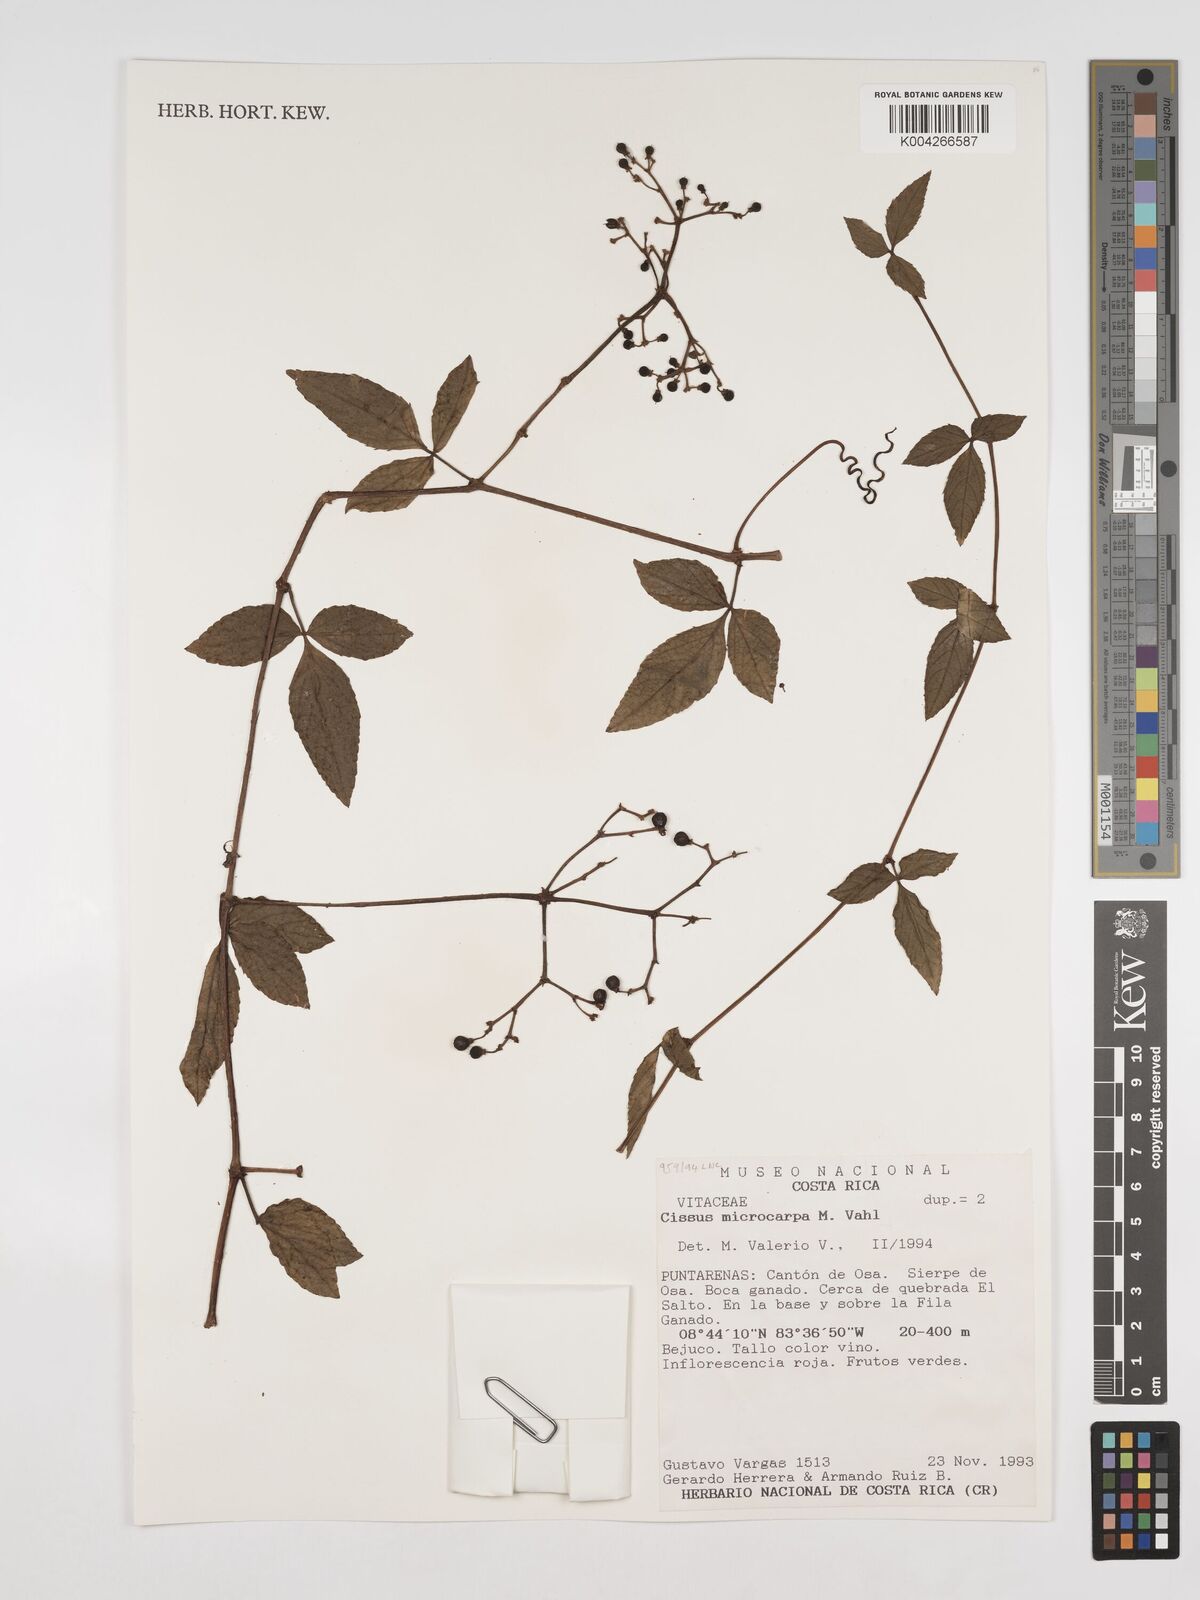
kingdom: Plantae
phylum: Tracheophyta
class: Magnoliopsida
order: Vitales
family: Vitaceae
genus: Cissus
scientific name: Cissus microcarpa
